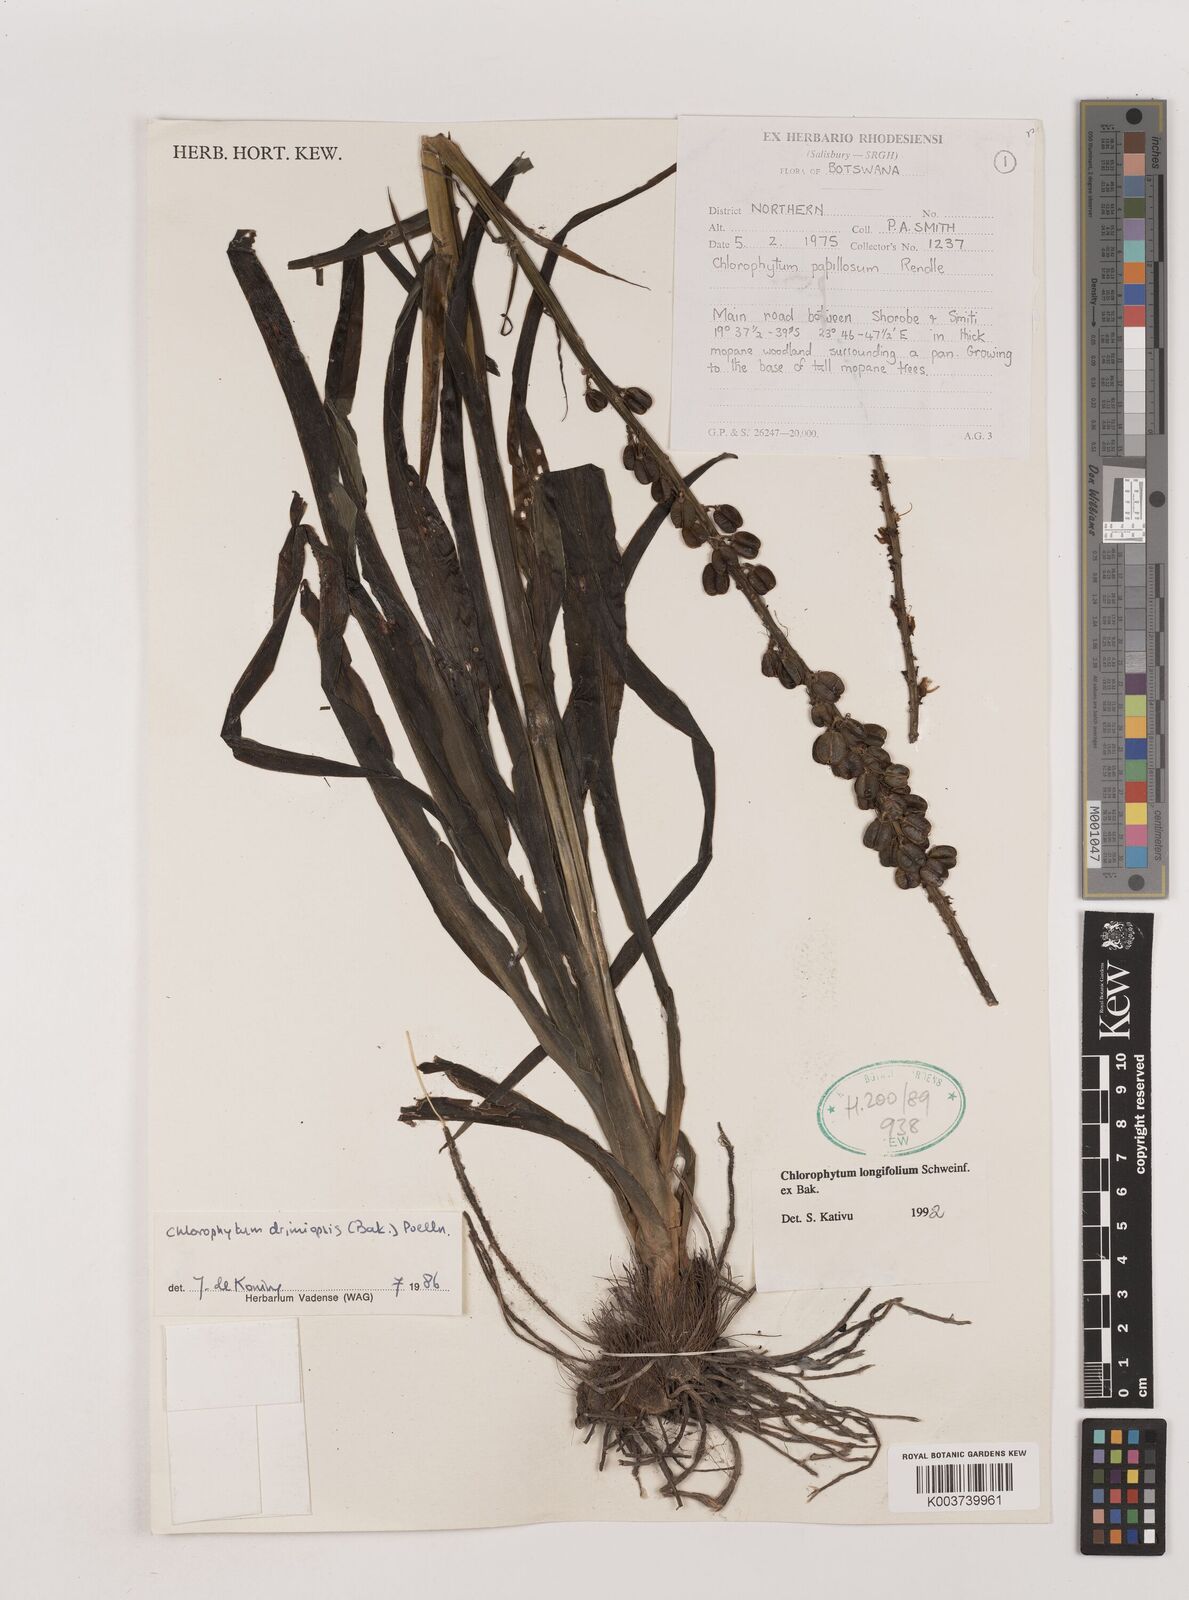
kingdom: Plantae
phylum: Tracheophyta
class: Liliopsida
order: Asparagales
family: Asparagaceae
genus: Chlorophytum
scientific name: Chlorophytum longifolium
